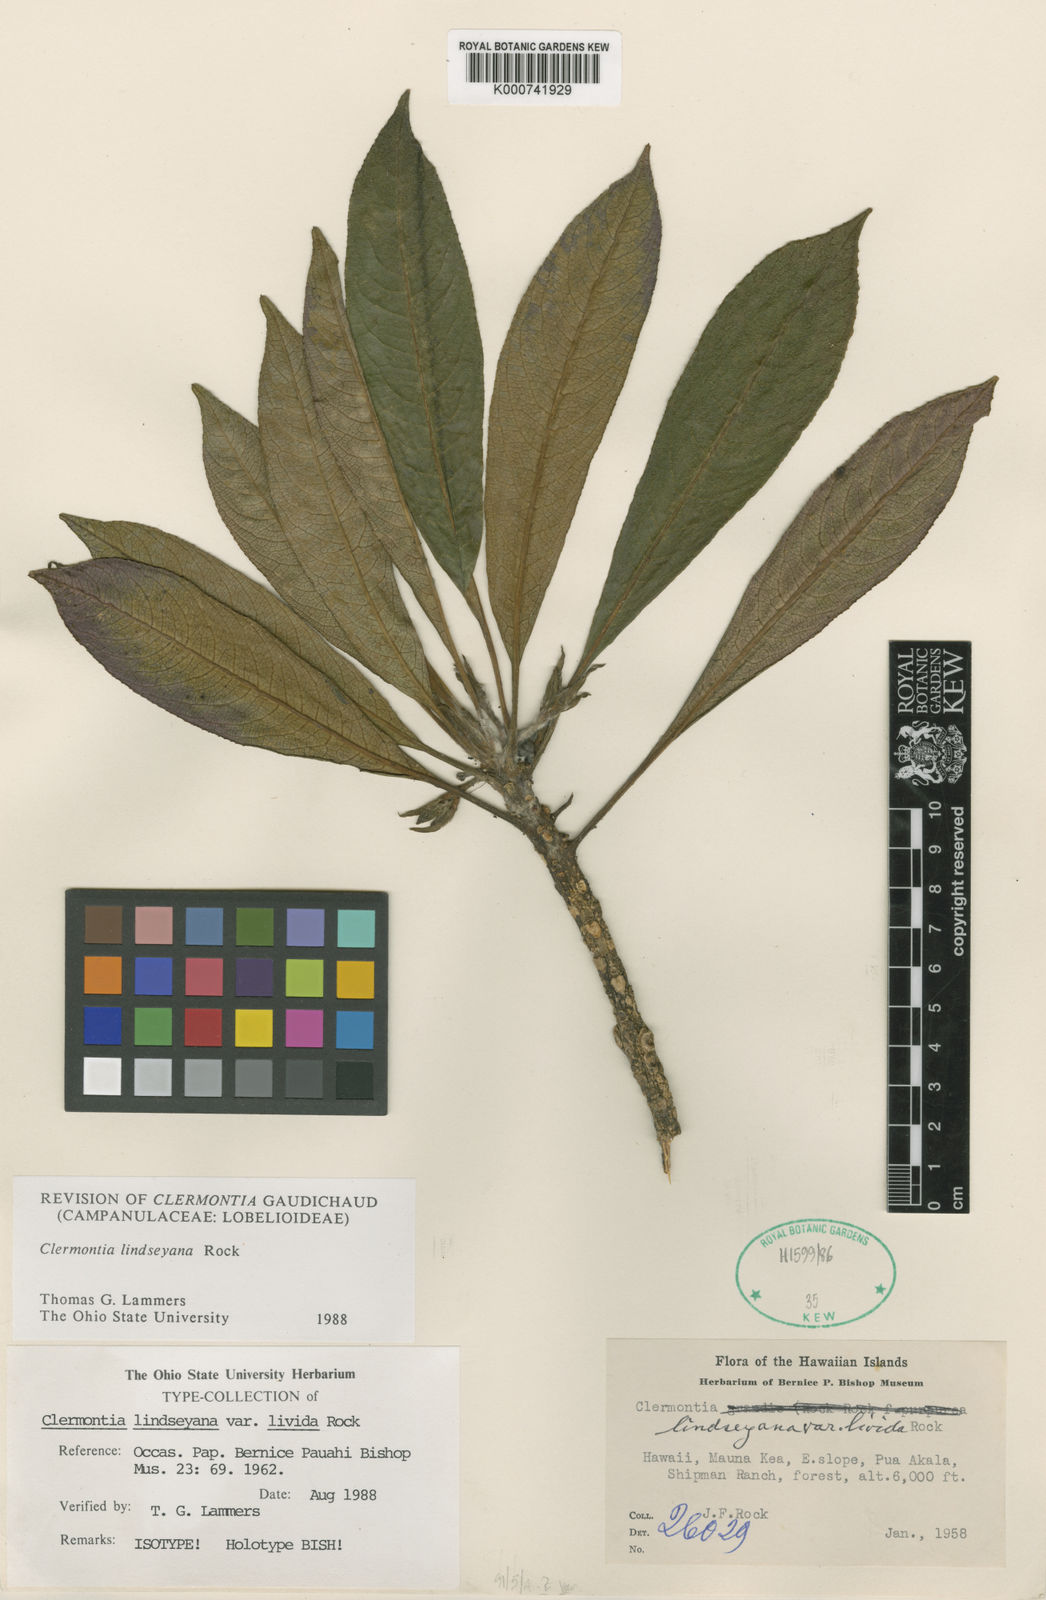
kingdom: Plantae
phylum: Tracheophyta
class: Magnoliopsida
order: Asterales
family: Campanulaceae
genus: Clermontia
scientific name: Clermontia lindseyana
